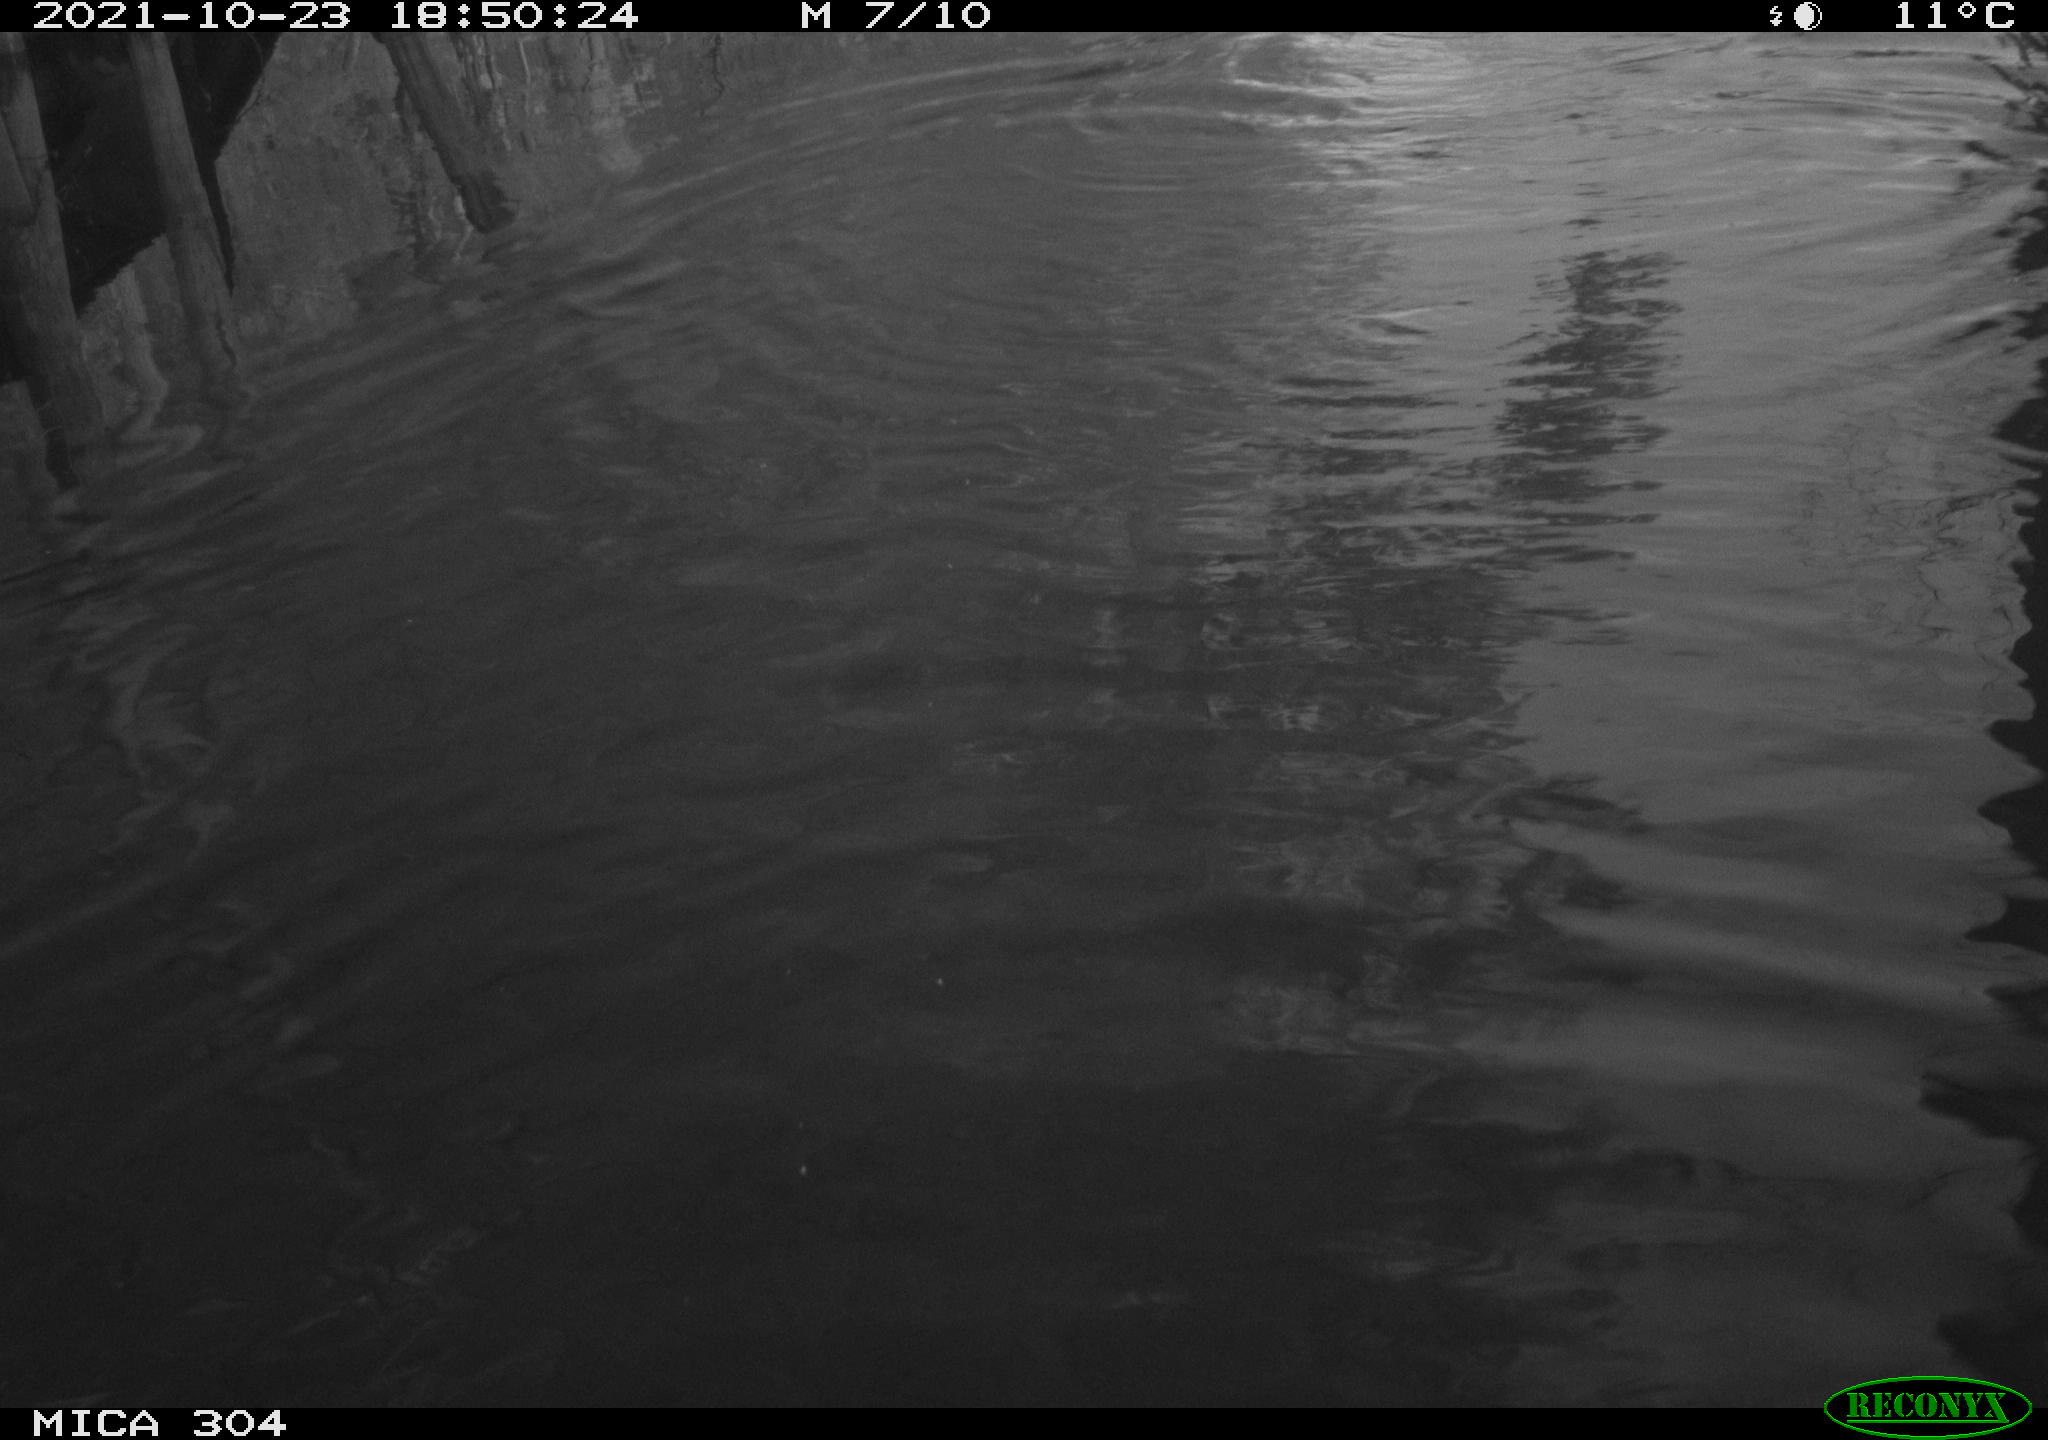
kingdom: Animalia
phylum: Chordata
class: Mammalia
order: Rodentia
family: Cricetidae
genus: Ondatra
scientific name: Ondatra zibethicus
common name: Muskrat
